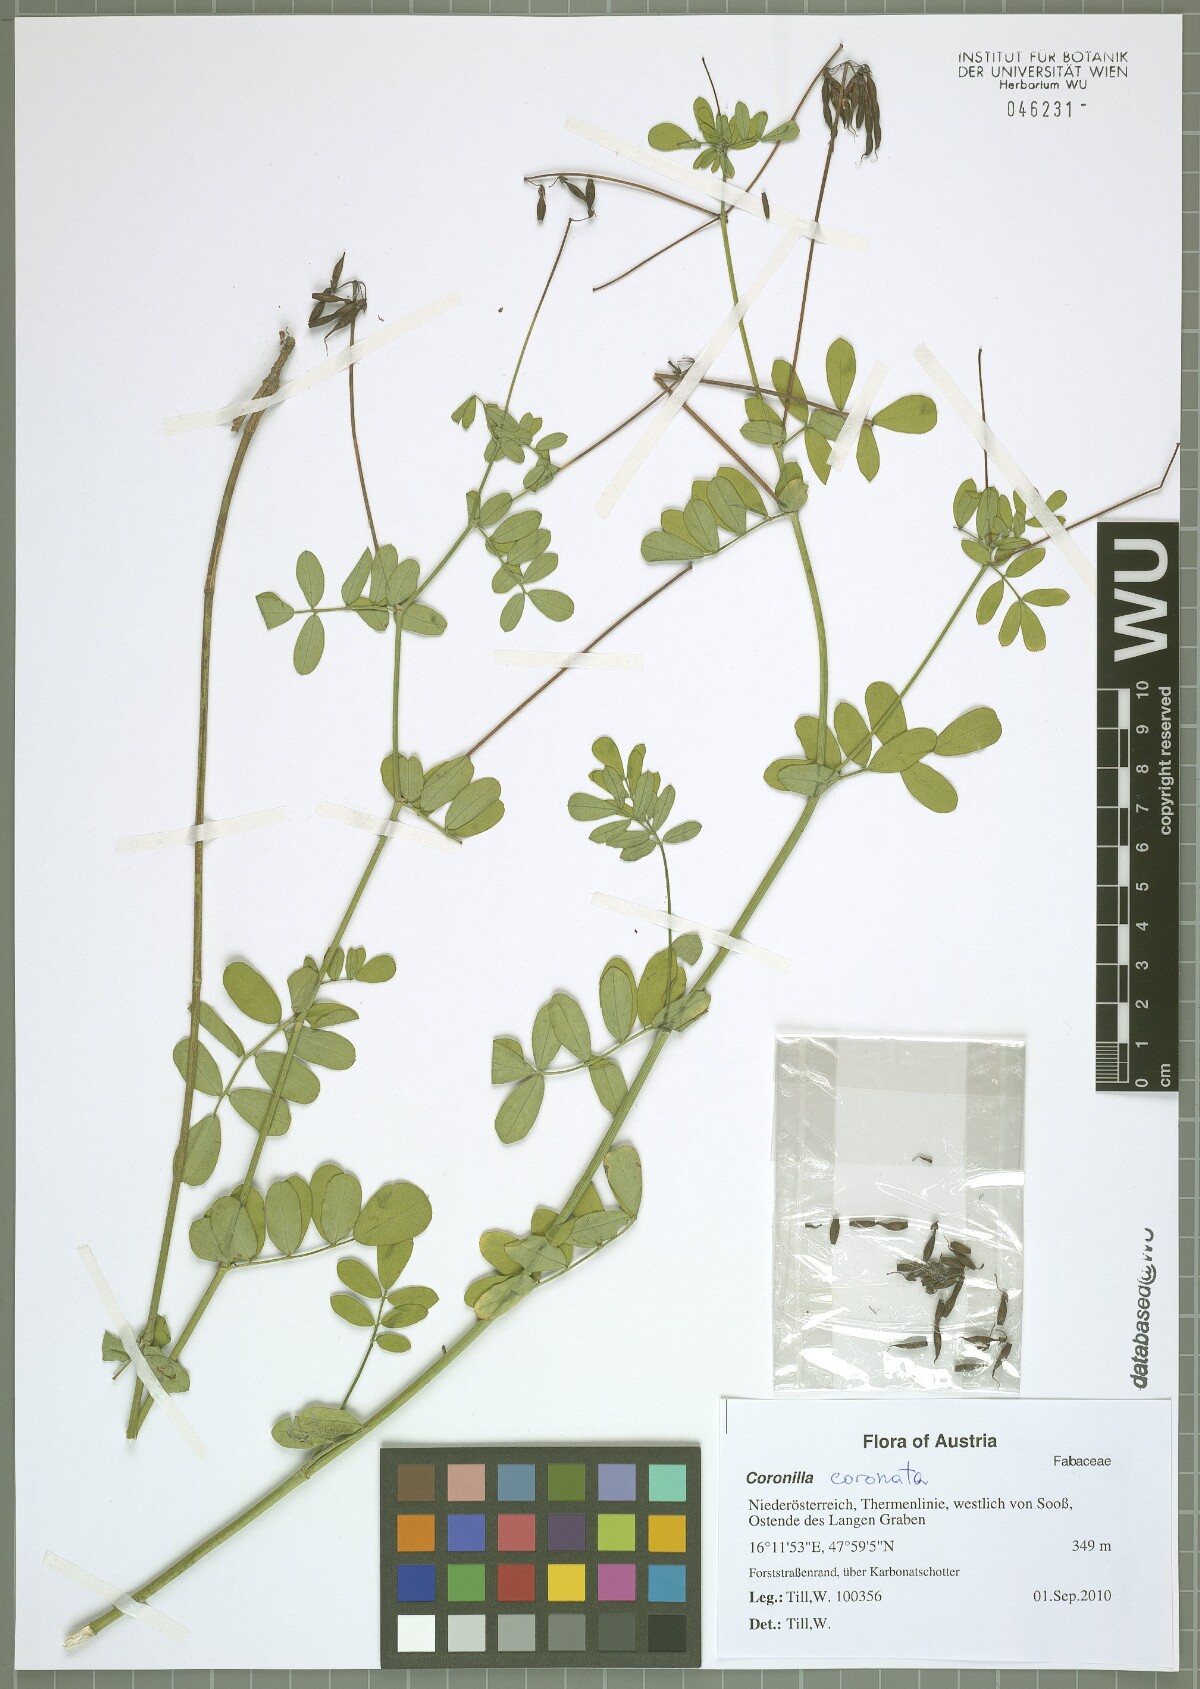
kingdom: Plantae
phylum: Tracheophyta
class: Magnoliopsida
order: Fabales
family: Fabaceae
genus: Coronilla
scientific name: Coronilla coronata
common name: Scorpion-vetch
